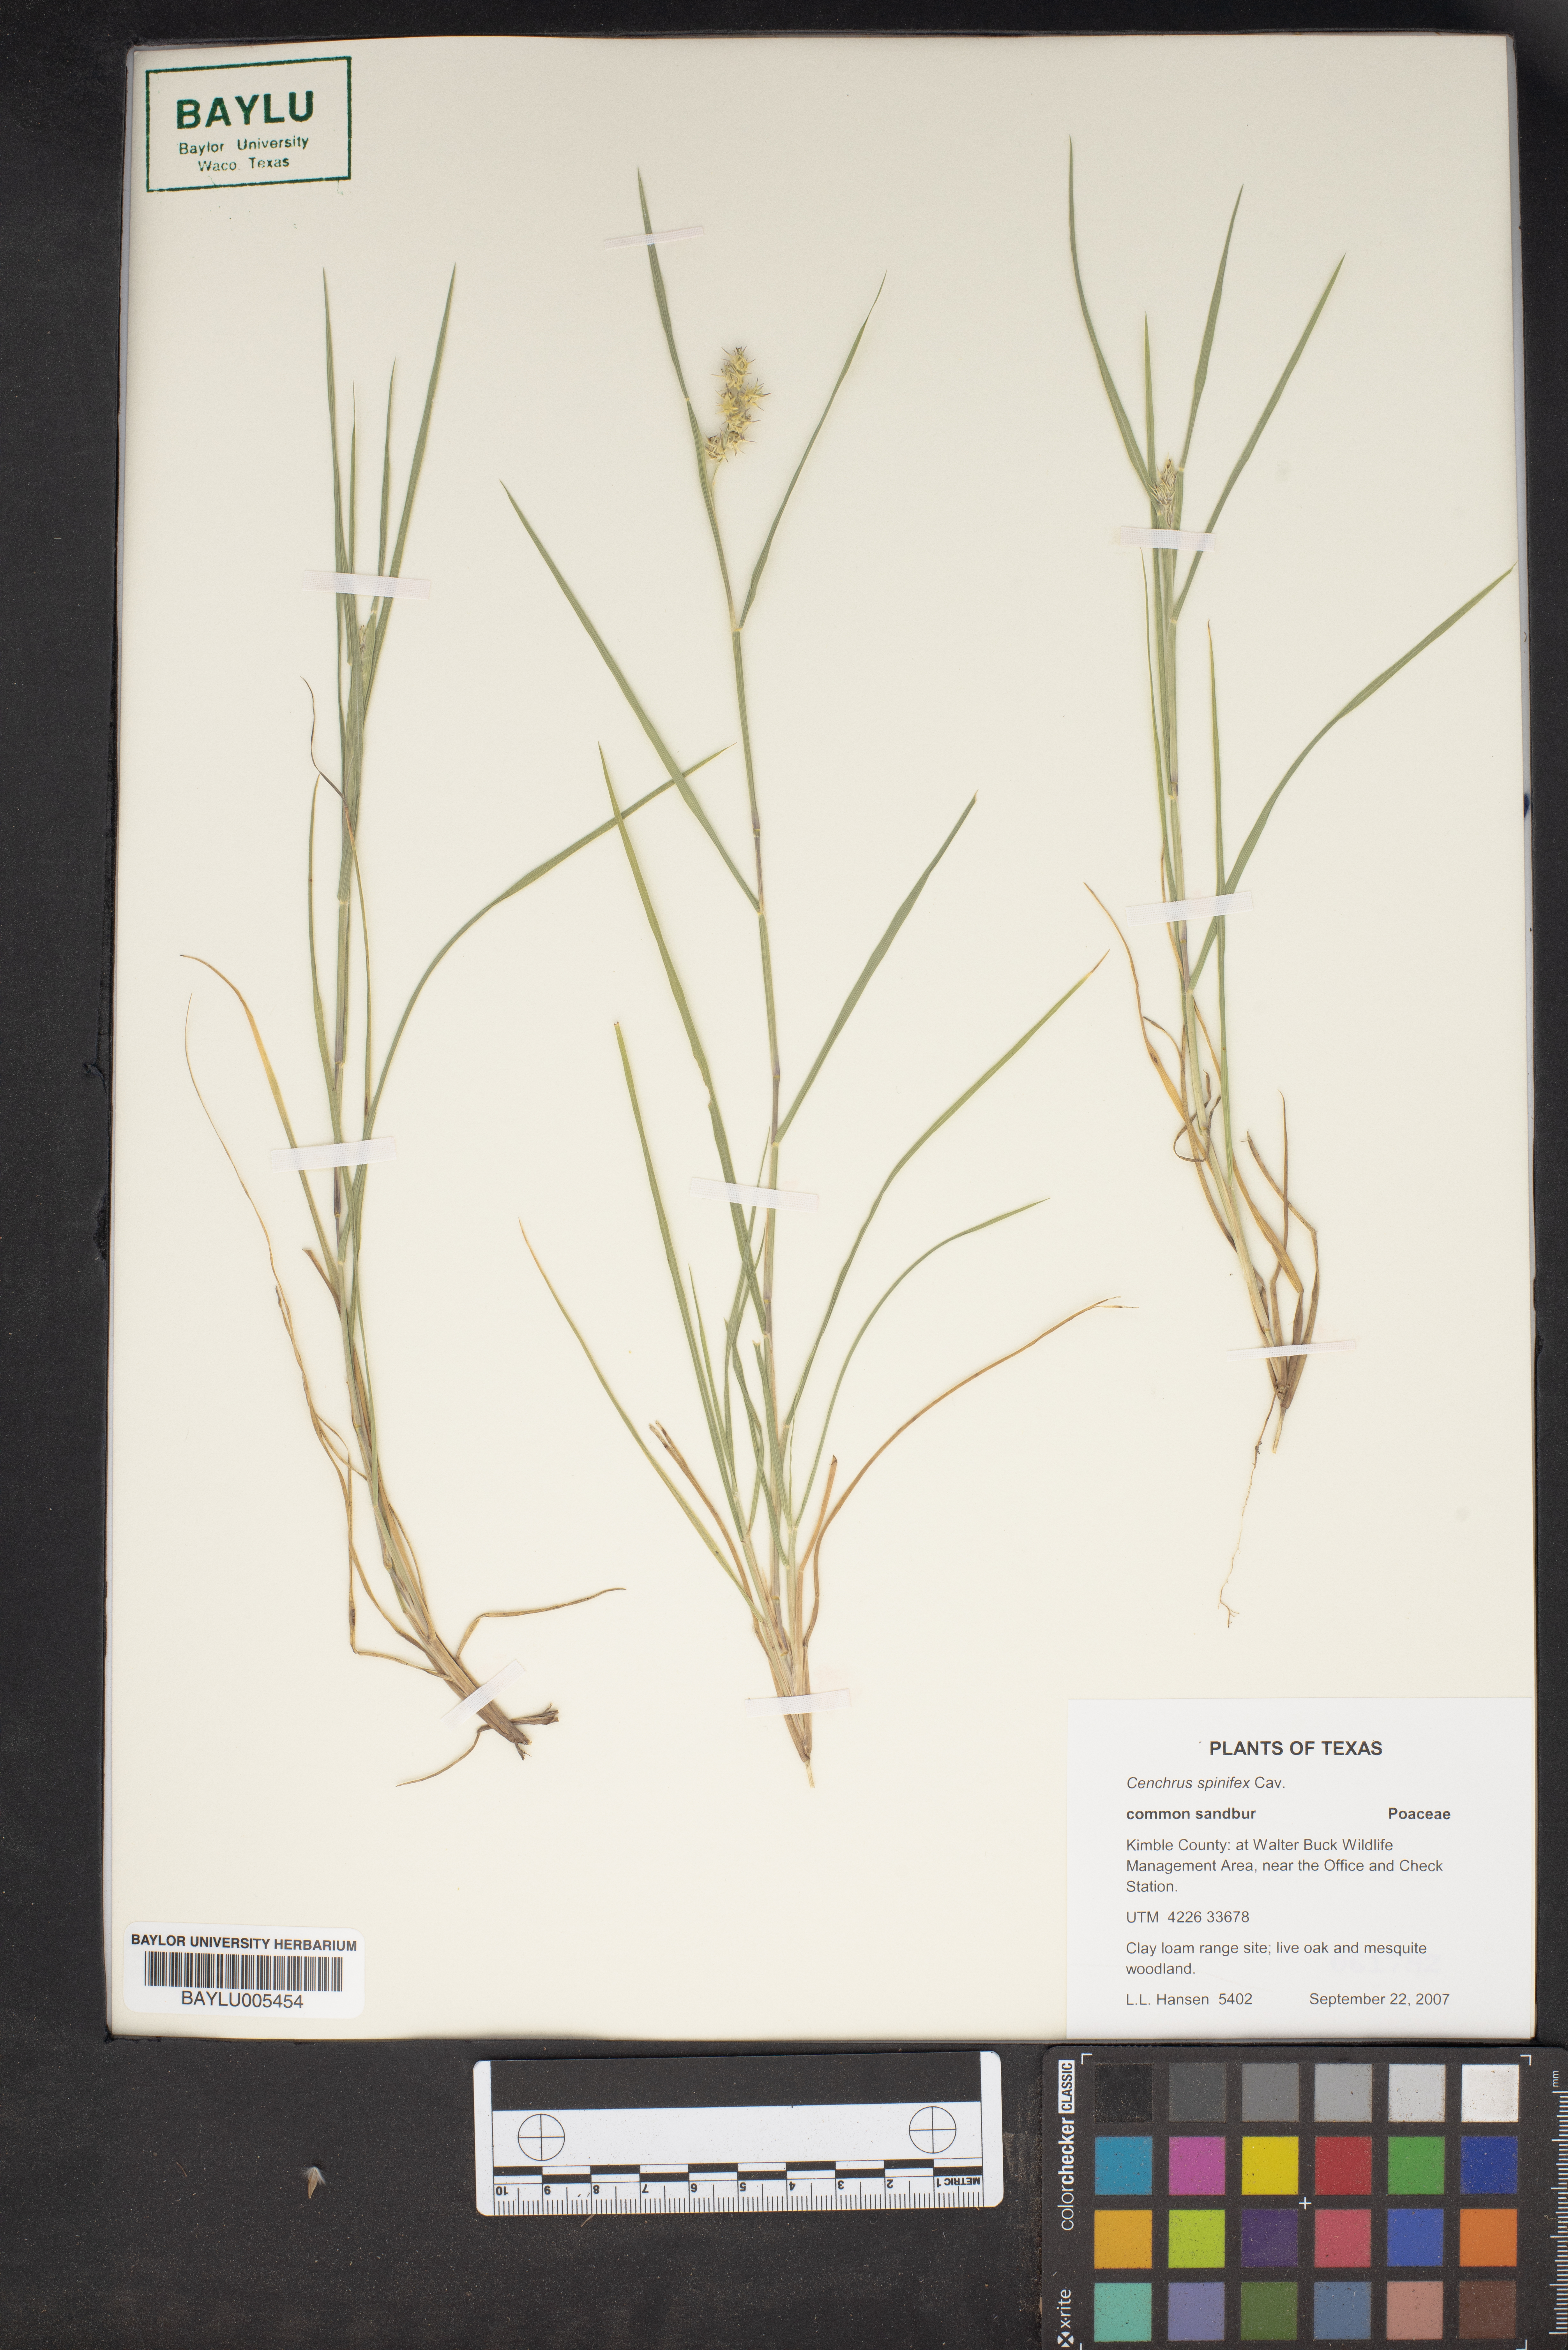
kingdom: Plantae
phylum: Tracheophyta
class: Liliopsida
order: Poales
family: Poaceae
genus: Cenchrus
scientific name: Cenchrus spinifex
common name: Coast sandbur
